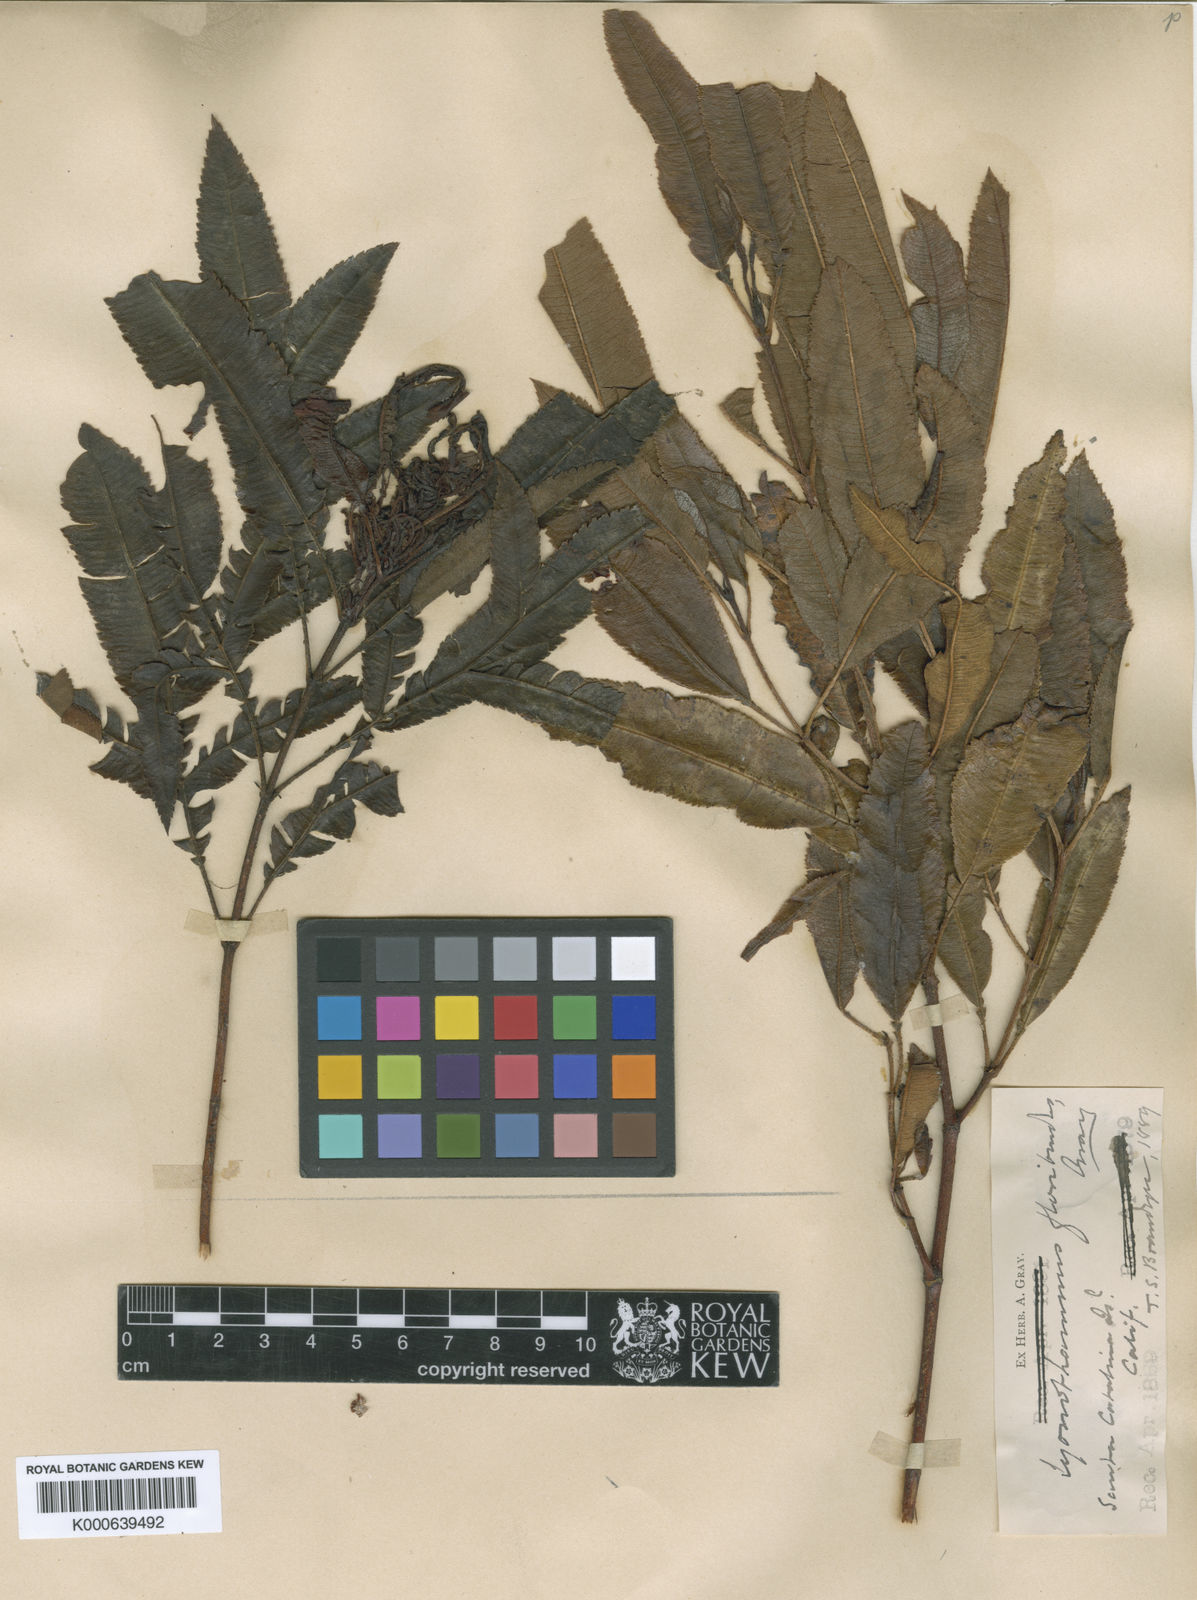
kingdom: Plantae
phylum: Tracheophyta
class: Magnoliopsida
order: Rosales
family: Rosaceae
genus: Lyonothamnus
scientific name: Lyonothamnus floribundus
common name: Catalina ironwood
